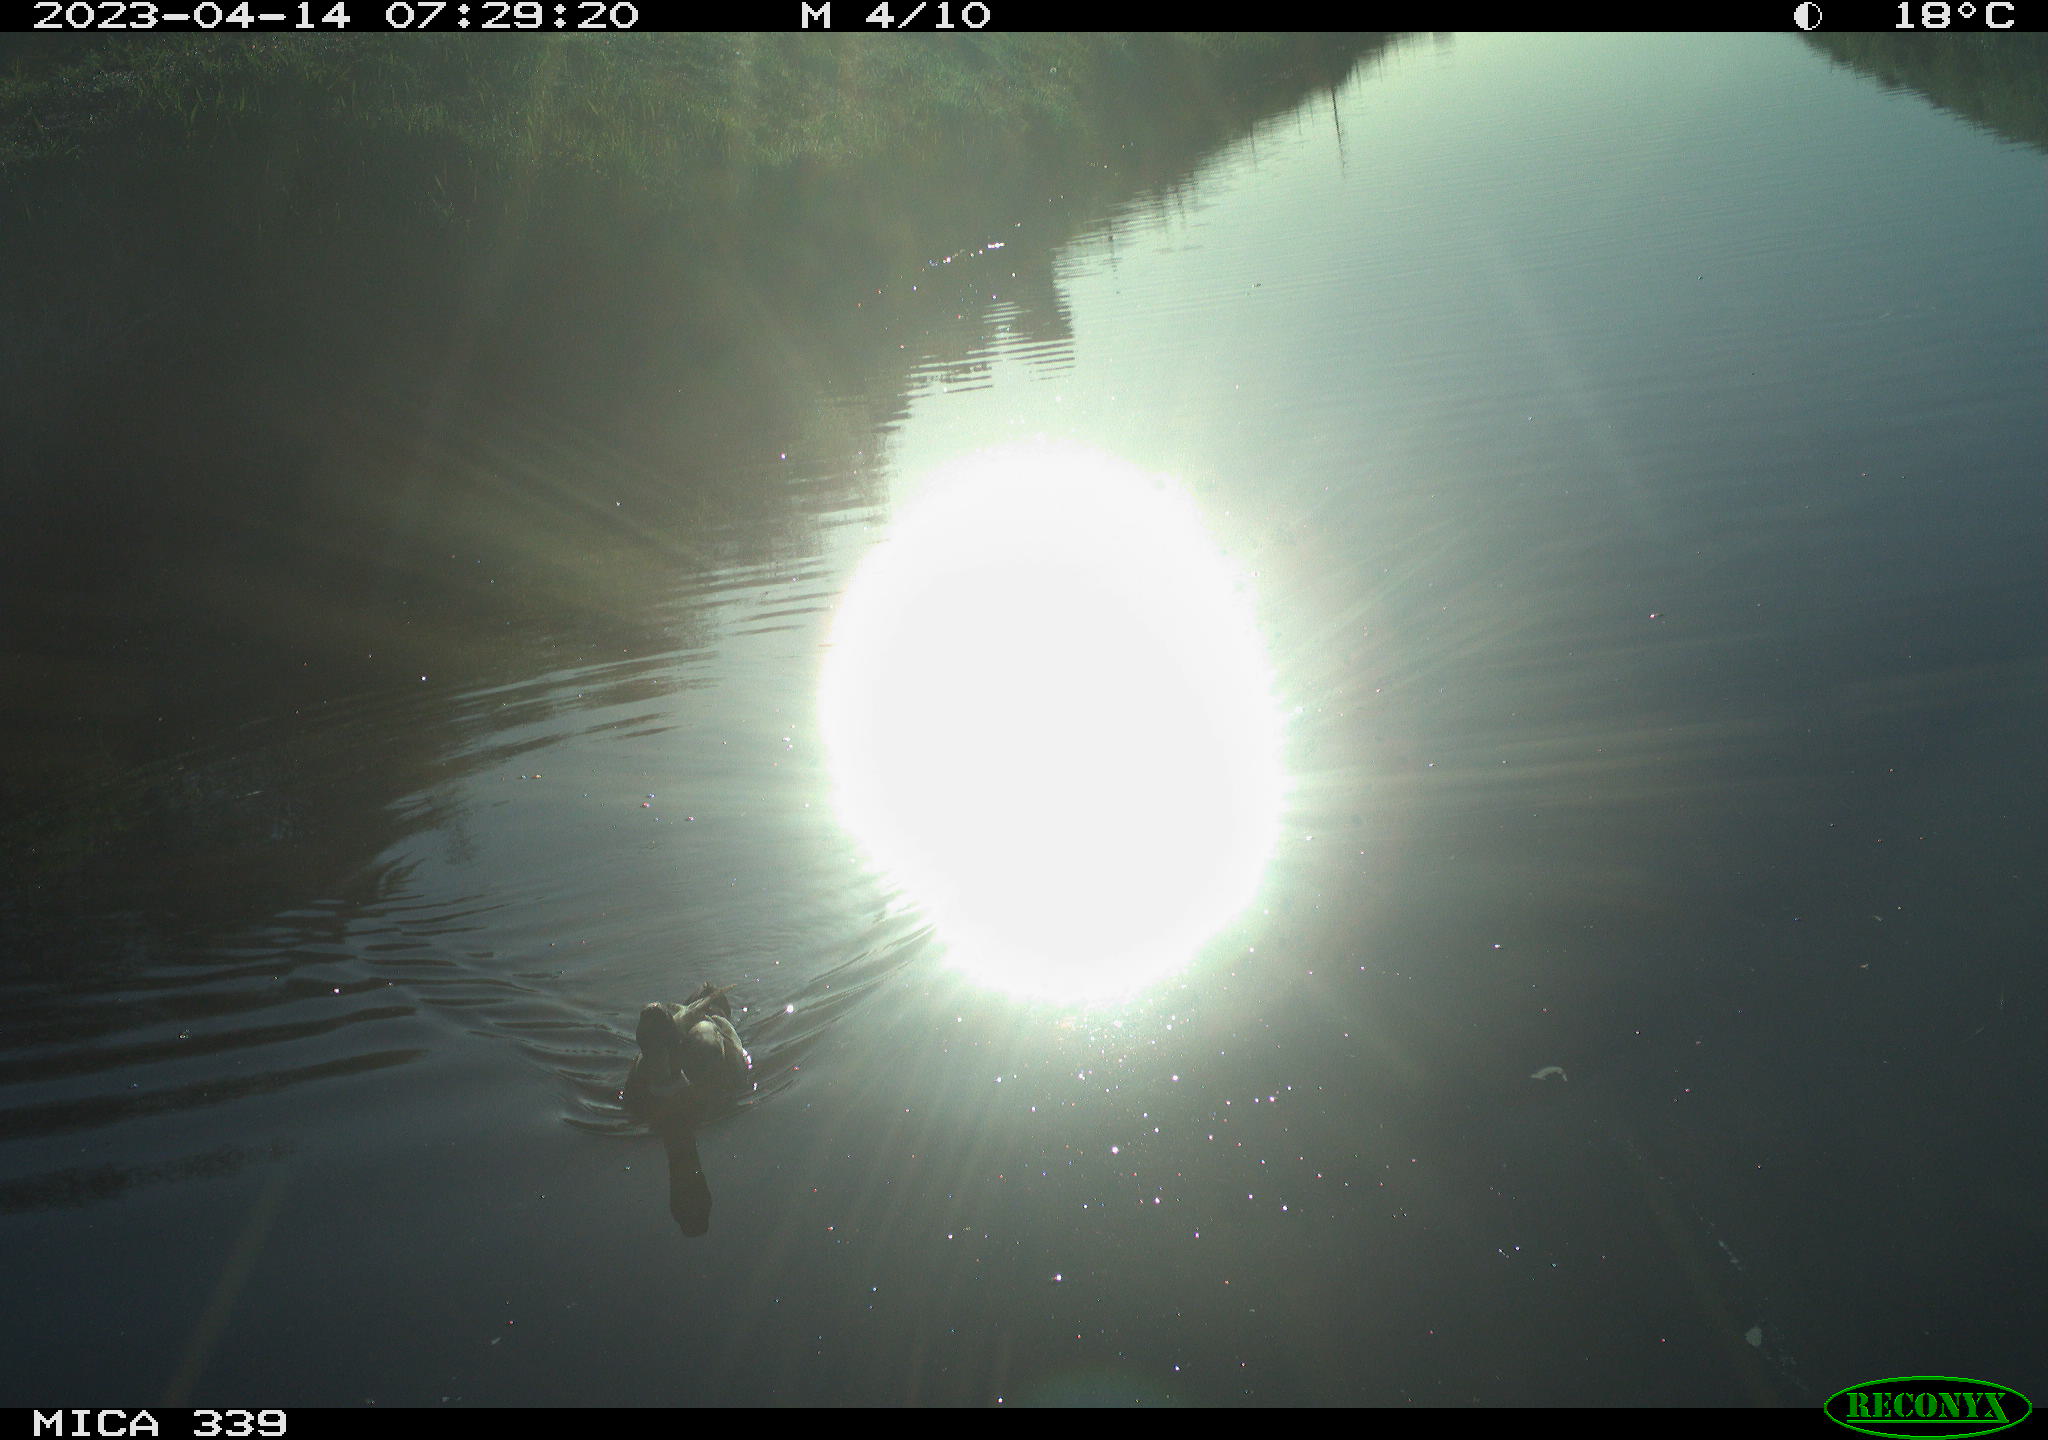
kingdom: Animalia
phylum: Chordata
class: Aves
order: Pelecaniformes
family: Ardeidae
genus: Ardea
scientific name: Ardea
